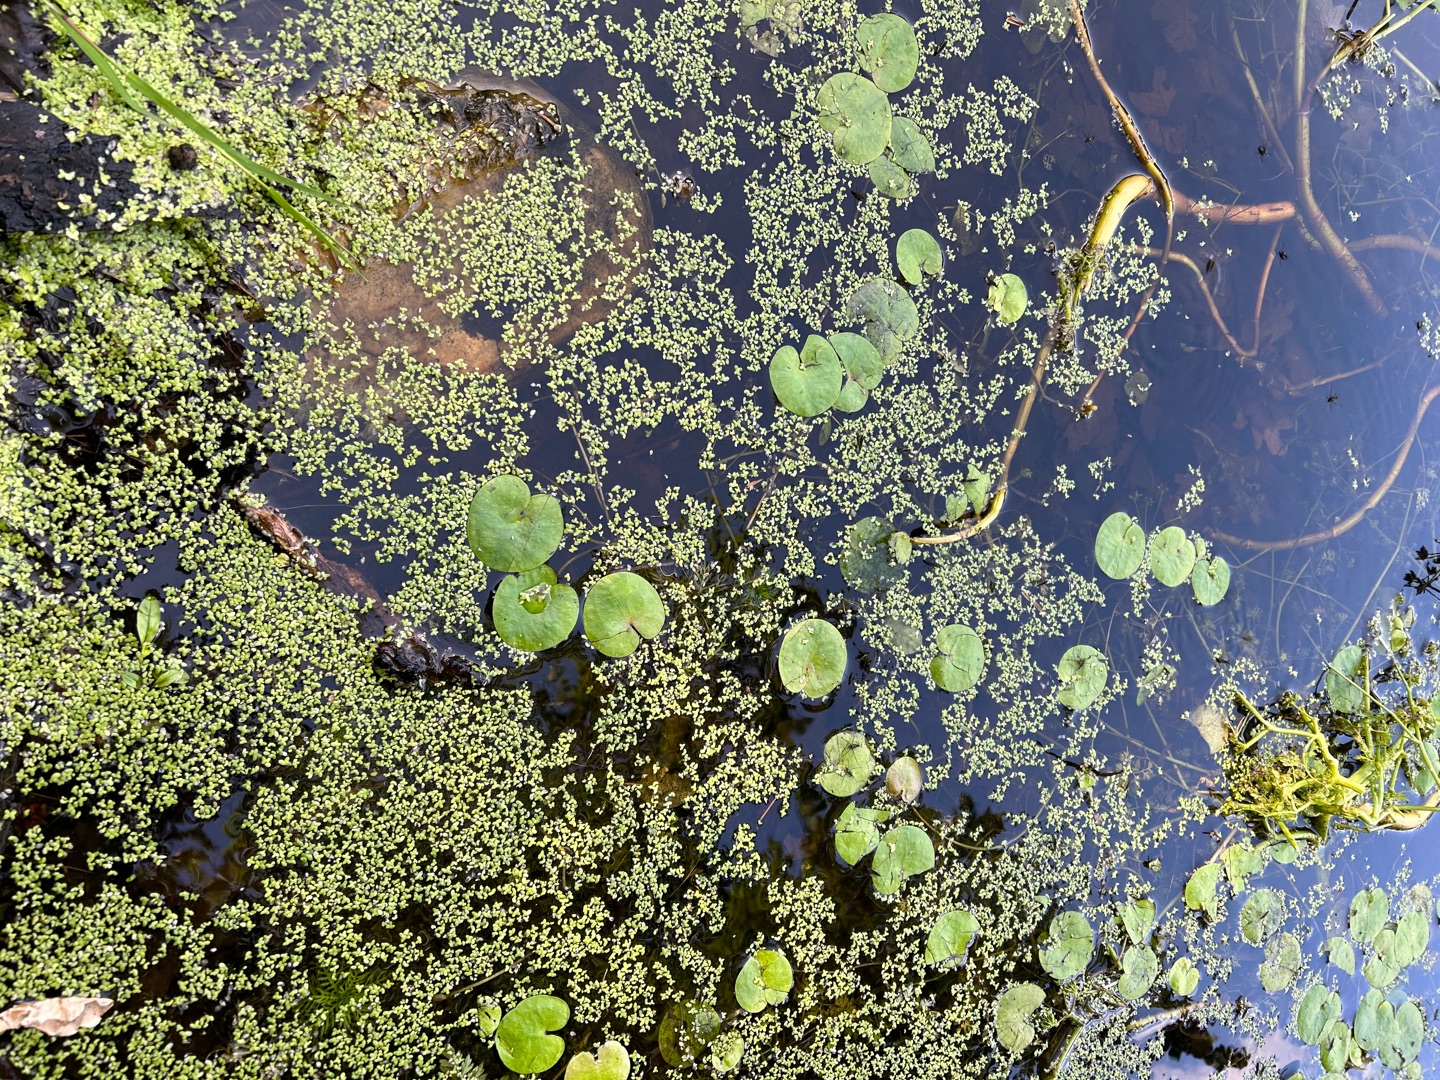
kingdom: Plantae
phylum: Tracheophyta
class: Liliopsida
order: Alismatales
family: Hydrocharitaceae
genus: Hydrocharis
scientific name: Hydrocharis morsus-ranae
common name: Frøbid
